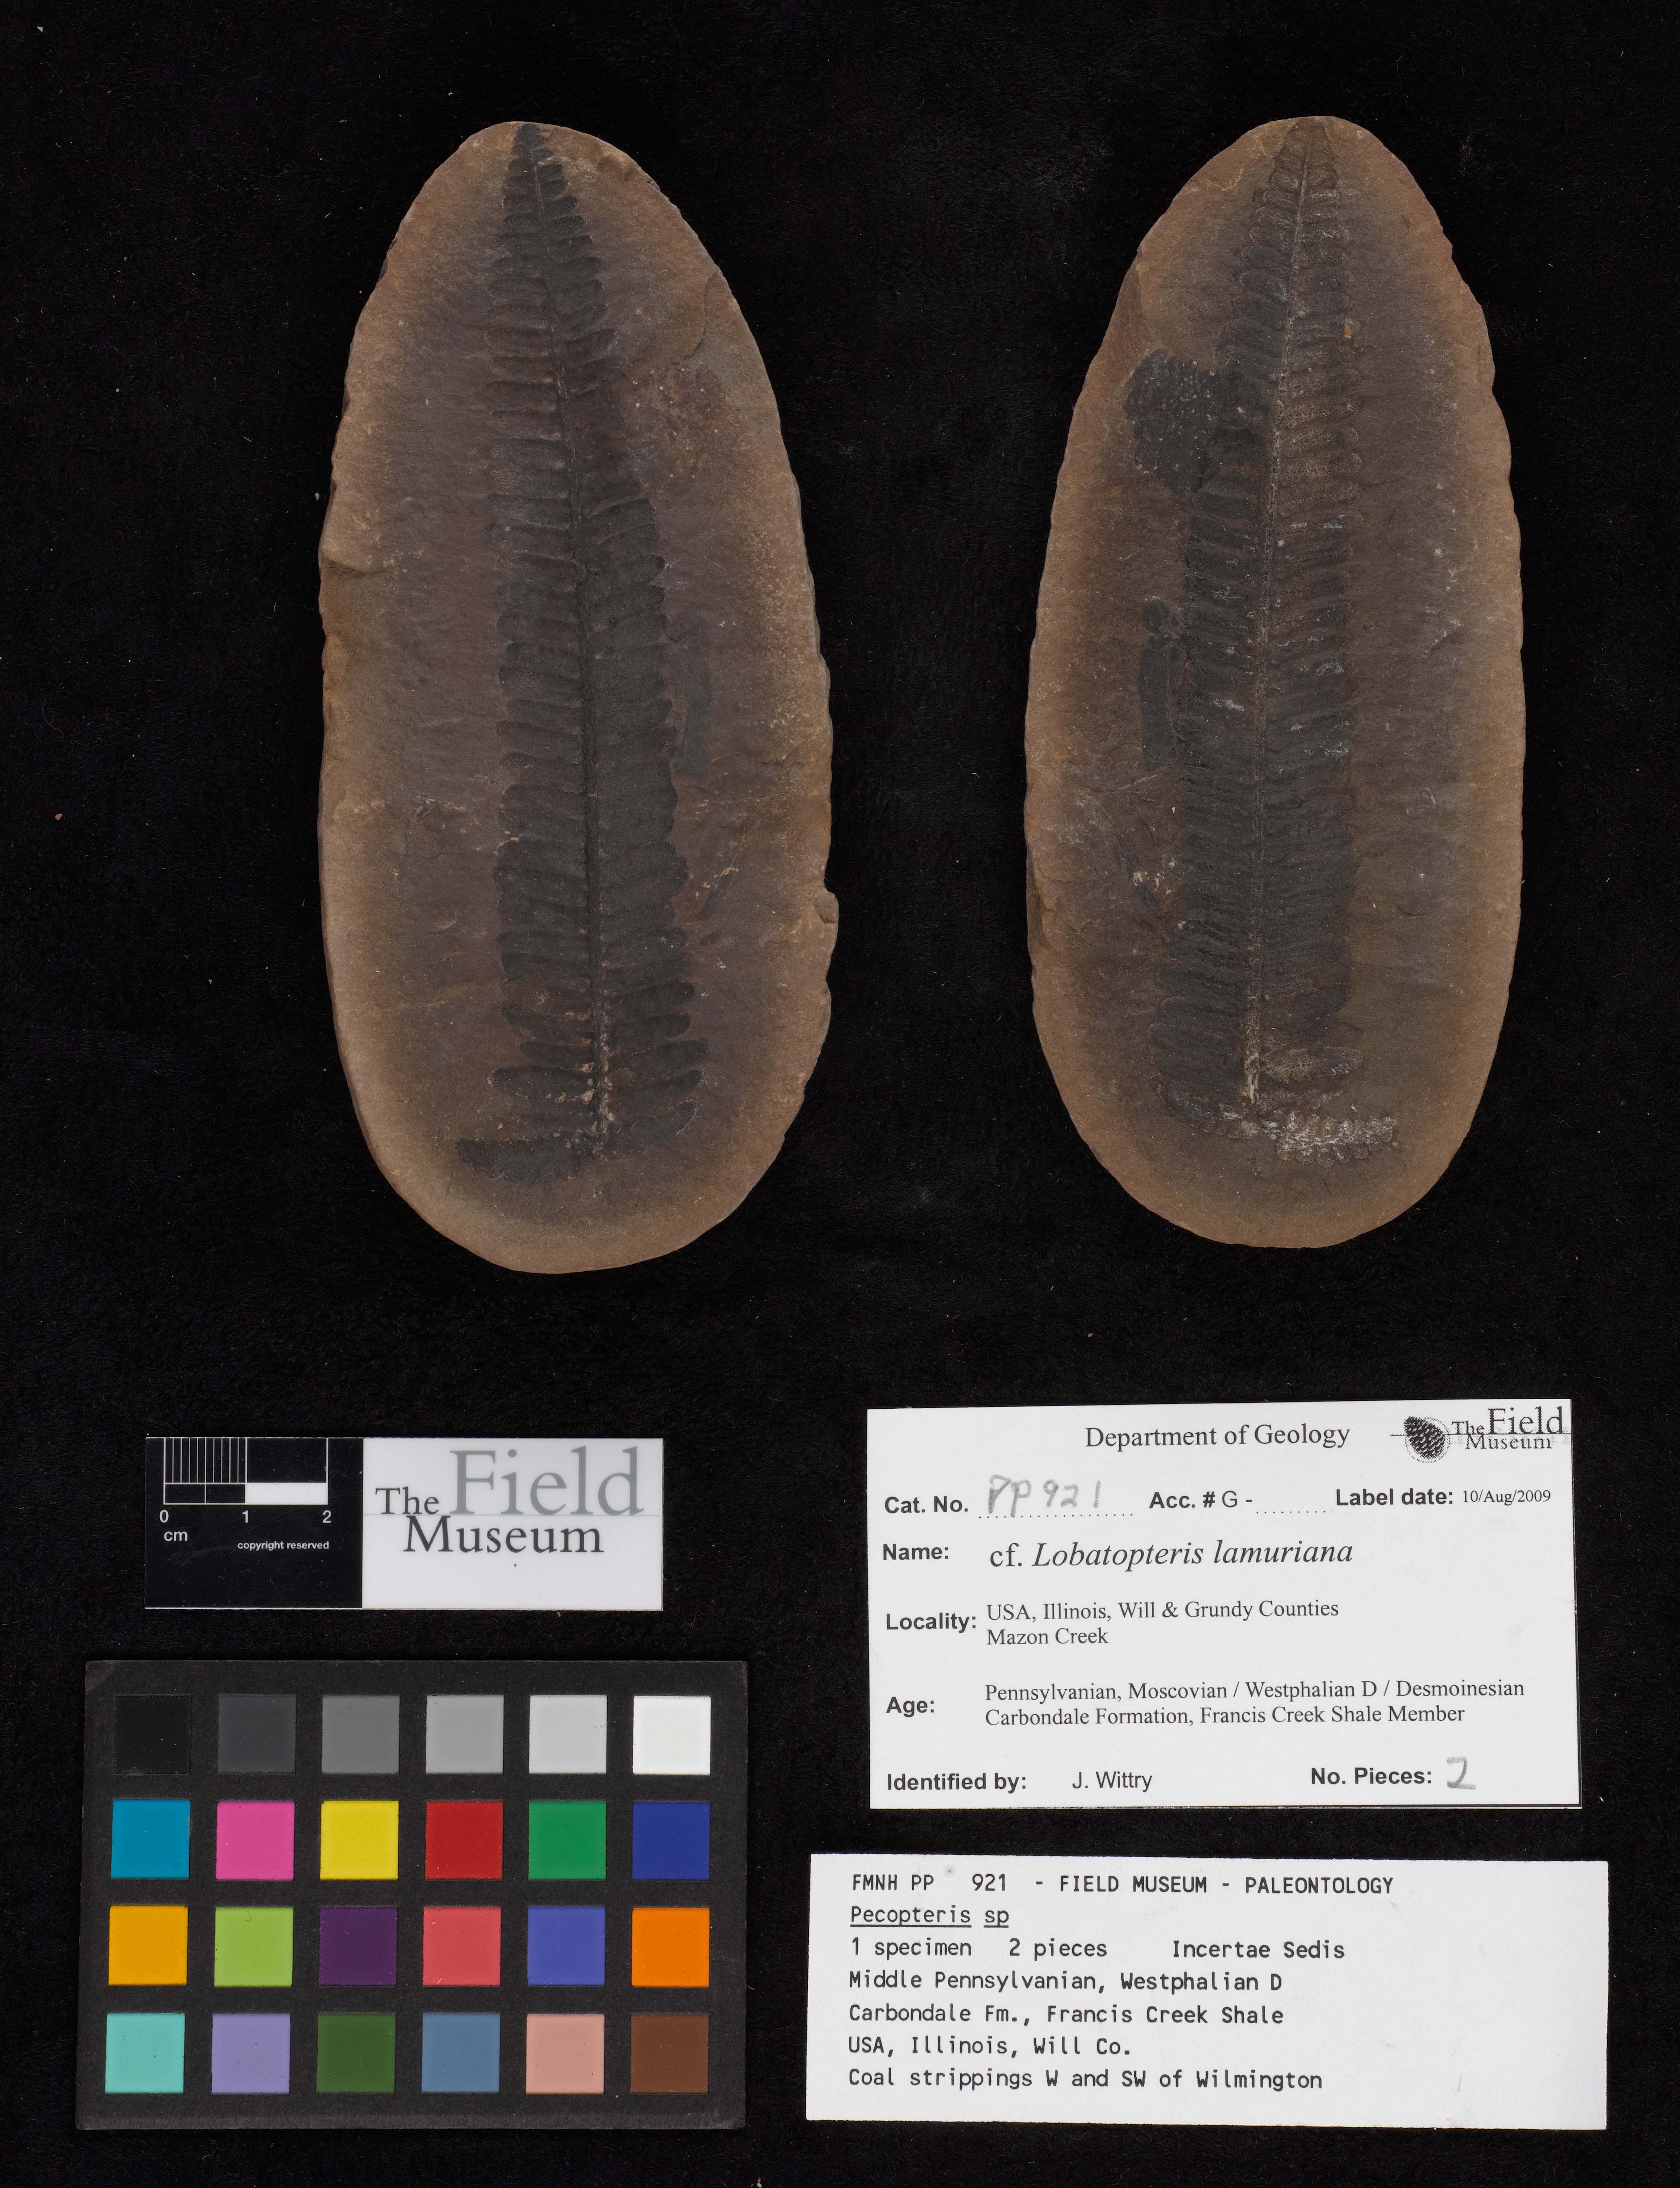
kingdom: Plantae
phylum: Tracheophyta
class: Polypodiopsida
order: Marattiales
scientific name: Marattiales
